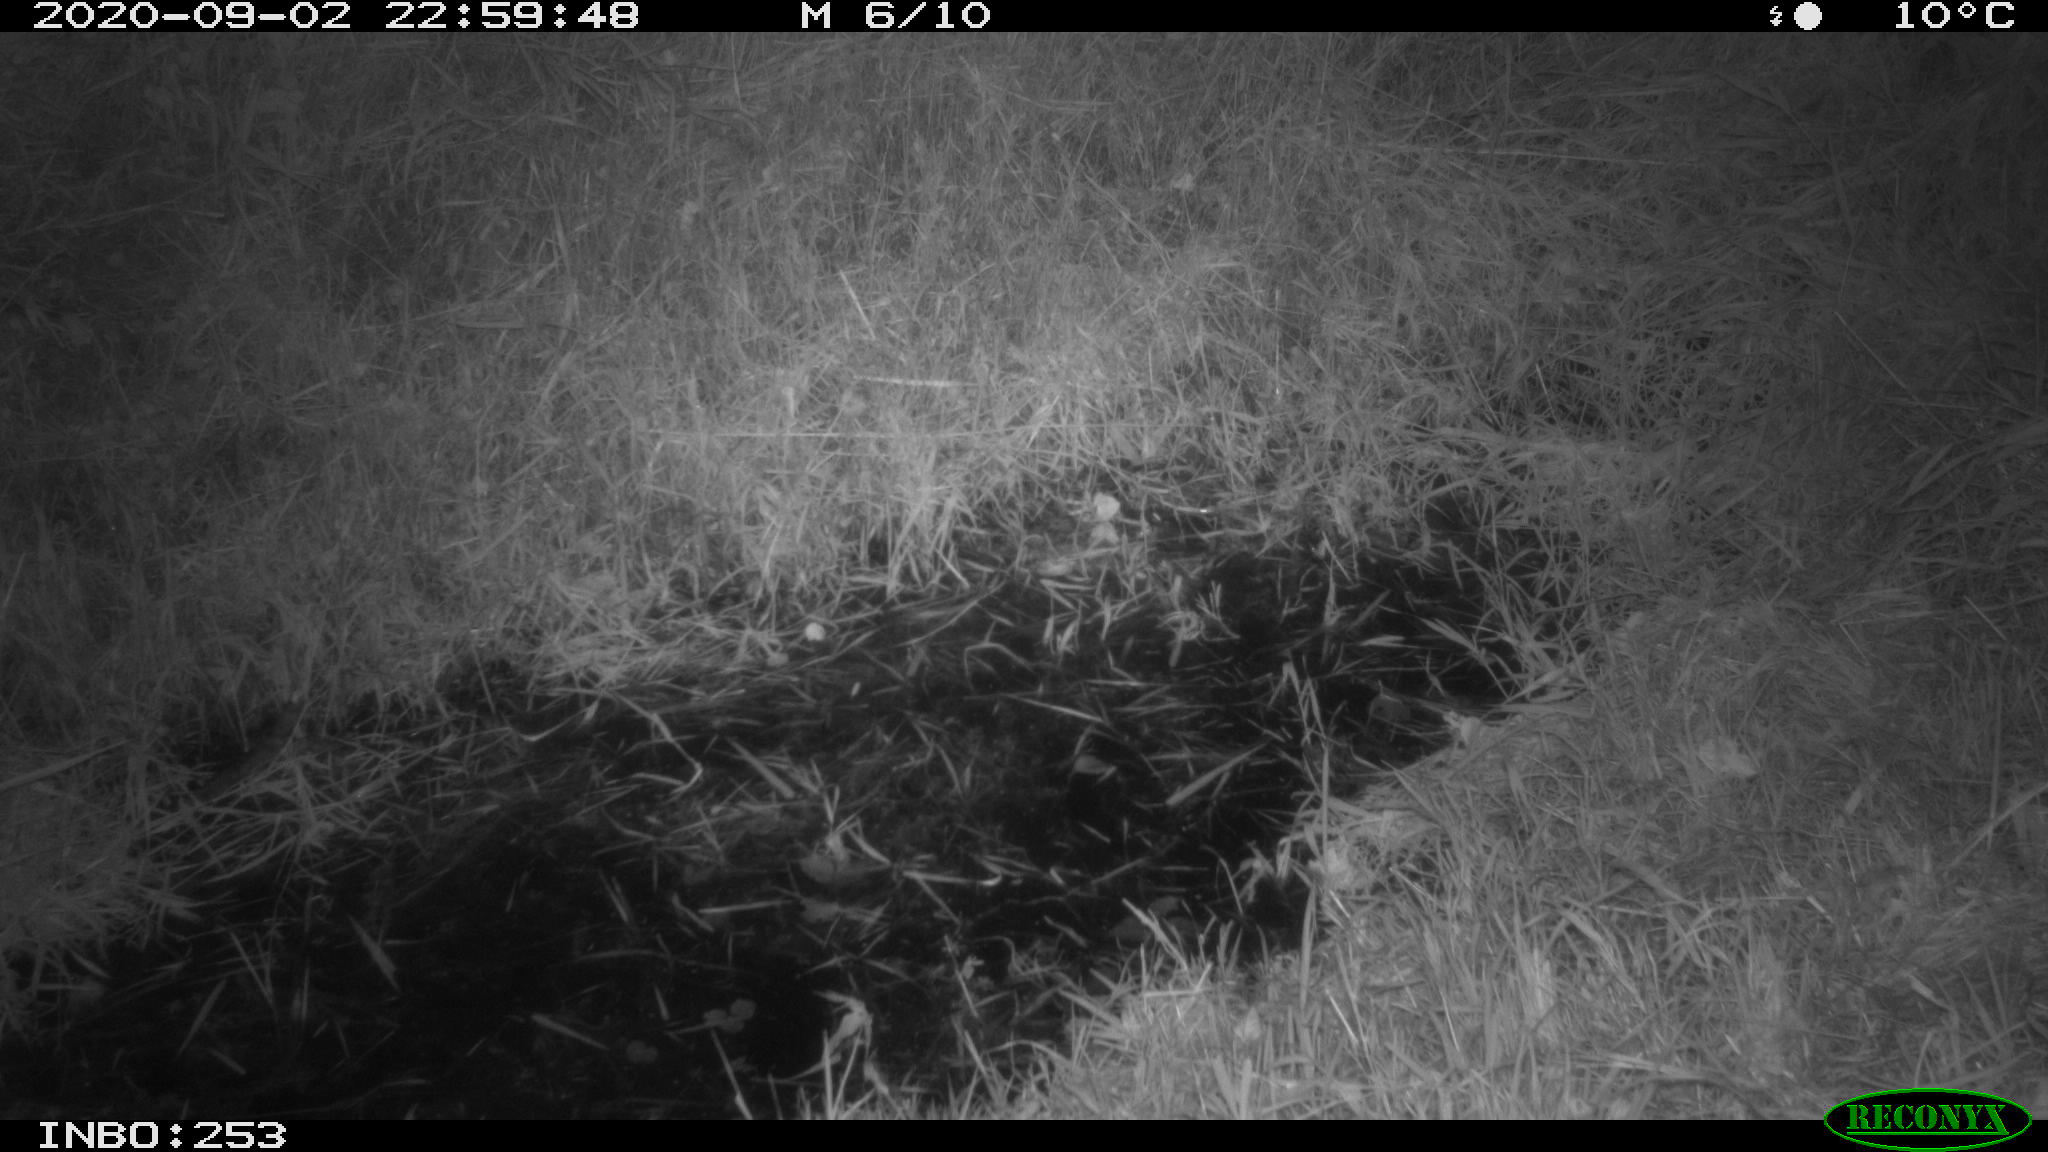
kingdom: Animalia
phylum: Chordata
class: Mammalia
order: Rodentia
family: Muridae
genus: Rattus
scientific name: Rattus norvegicus
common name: Brown rat
